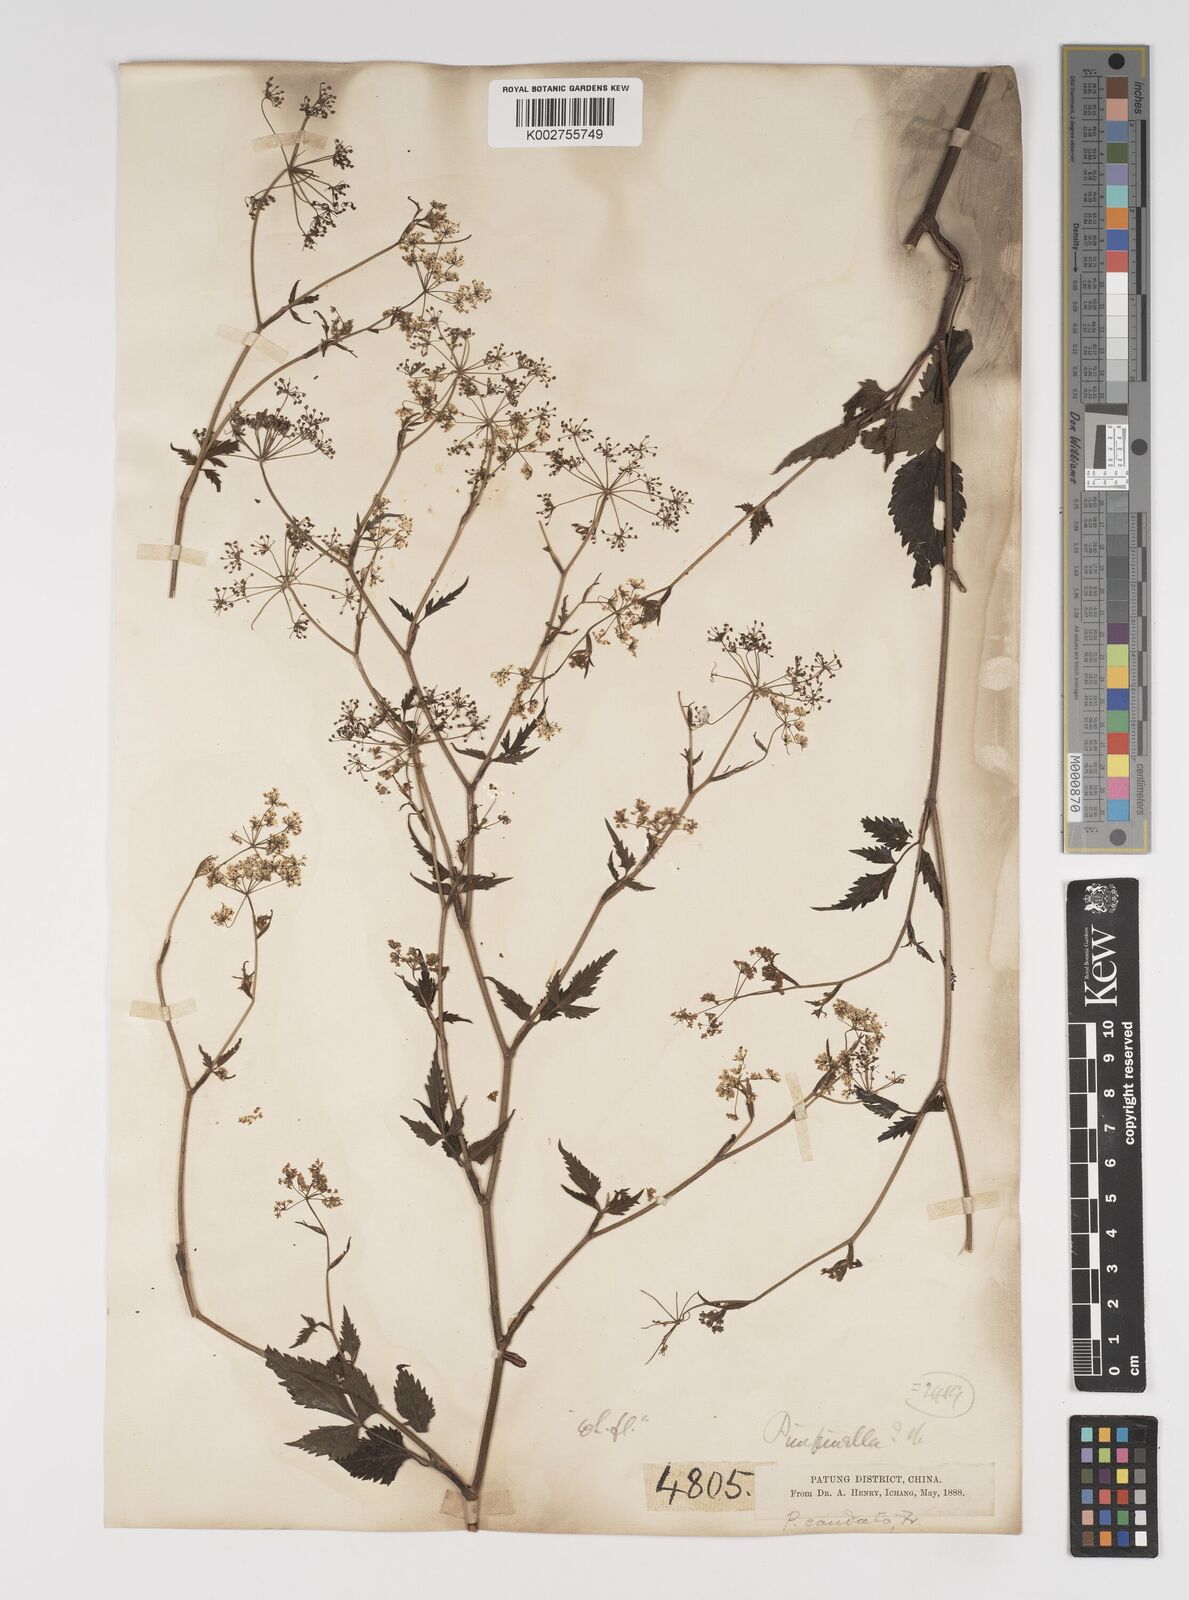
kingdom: Plantae
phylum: Tracheophyta
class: Magnoliopsida
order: Apiales
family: Apiaceae
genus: Pimpinella
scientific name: Pimpinella caudata
